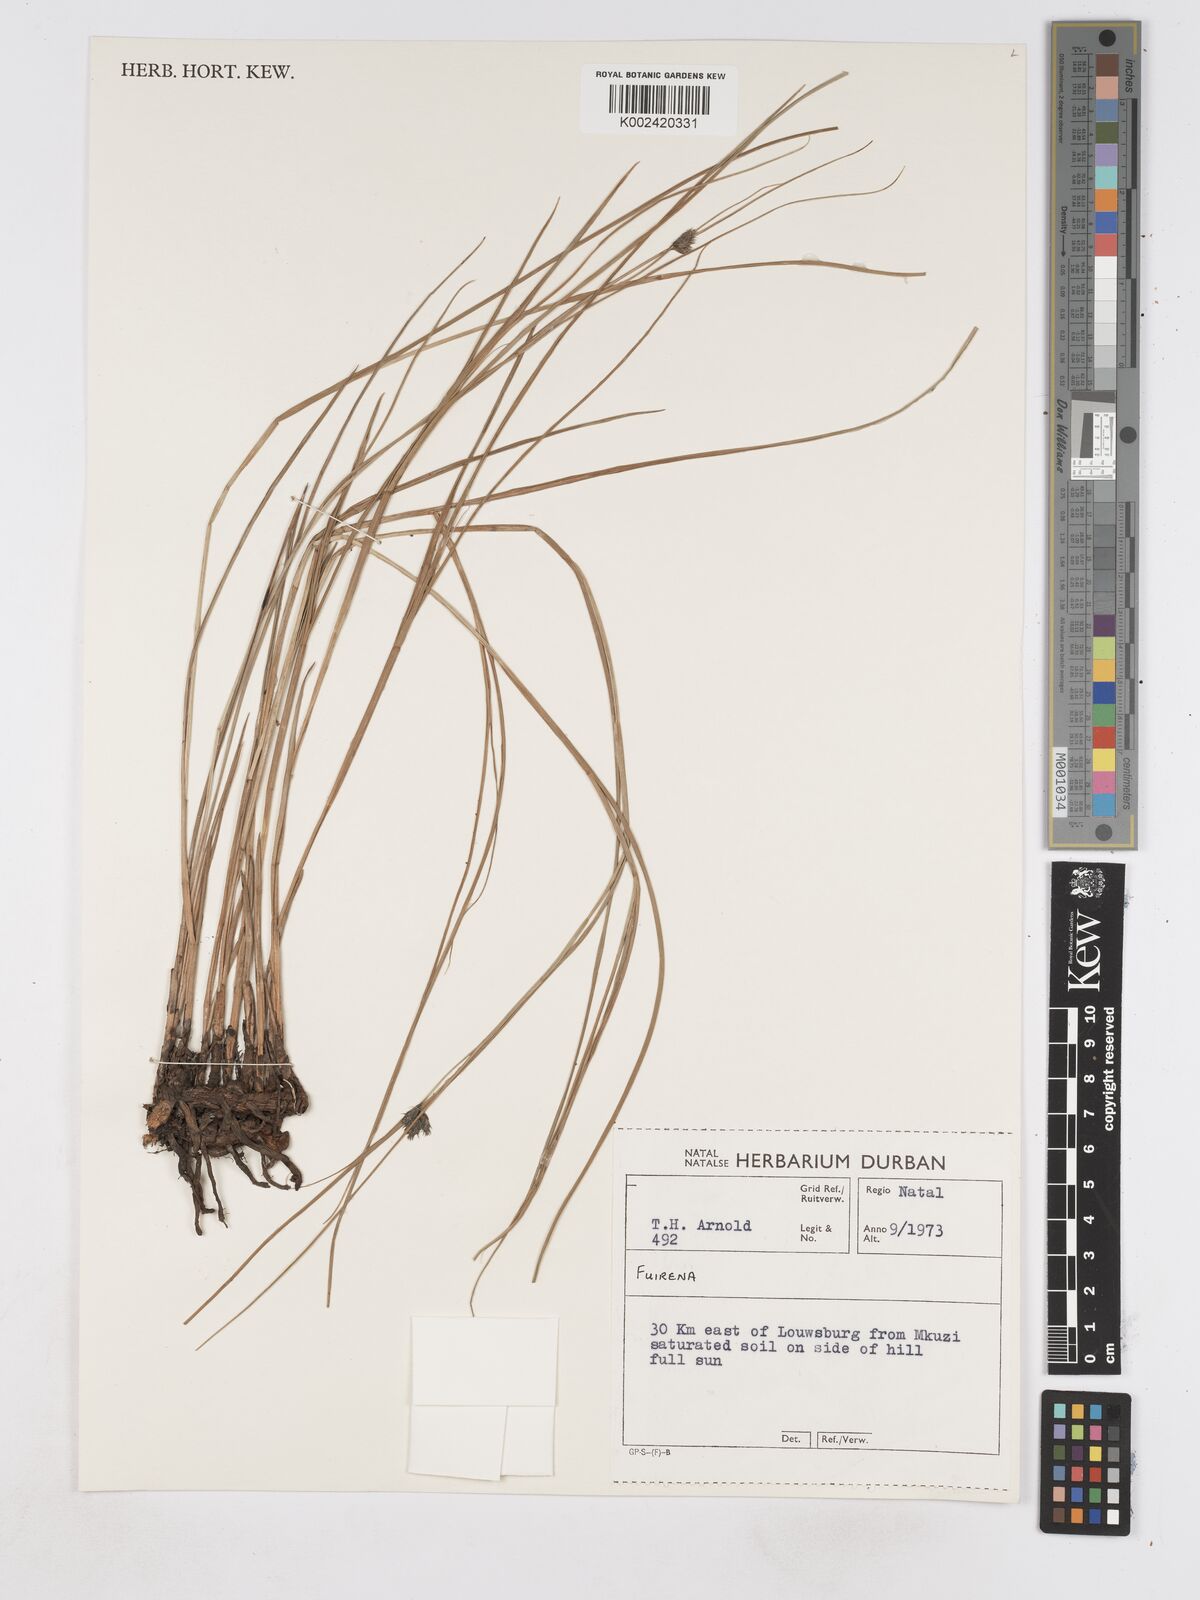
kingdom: Plantae
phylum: Tracheophyta
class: Liliopsida
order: Poales
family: Cyperaceae
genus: Fuirena
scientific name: Fuirena
